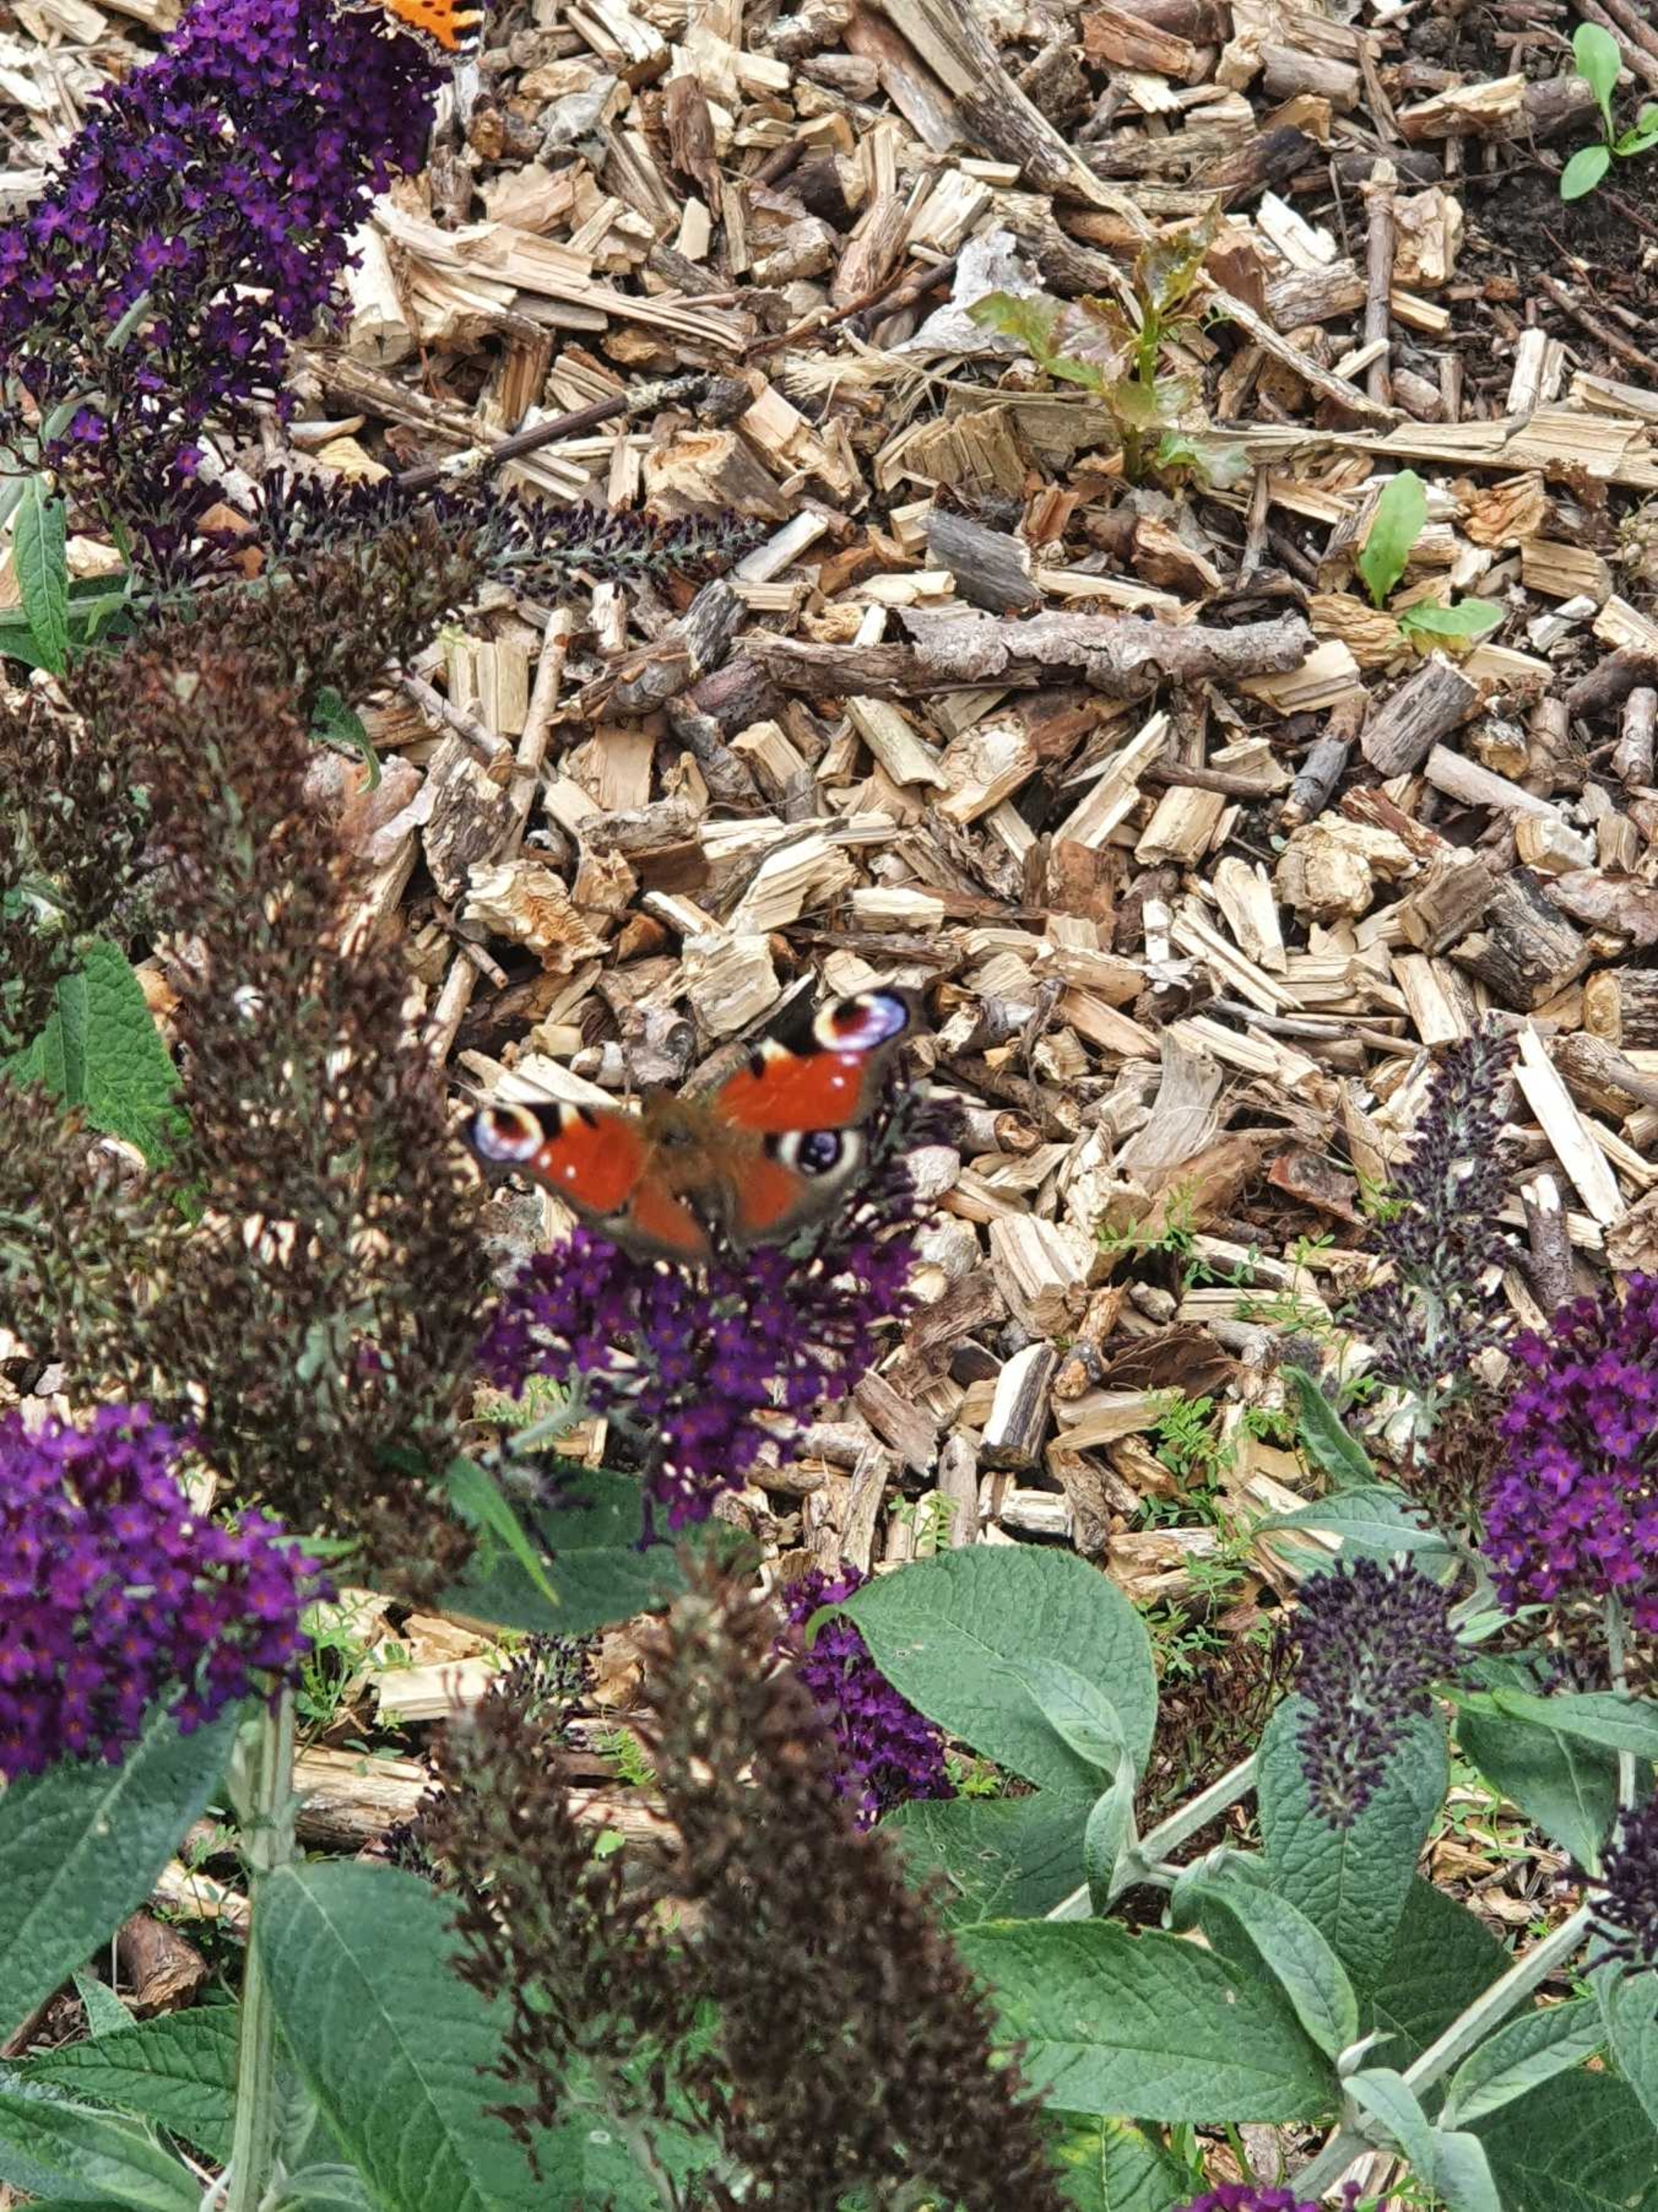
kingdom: Animalia
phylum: Arthropoda
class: Insecta
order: Lepidoptera
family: Nymphalidae
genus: Aglais
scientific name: Aglais io
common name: Dagpåfugleøje
